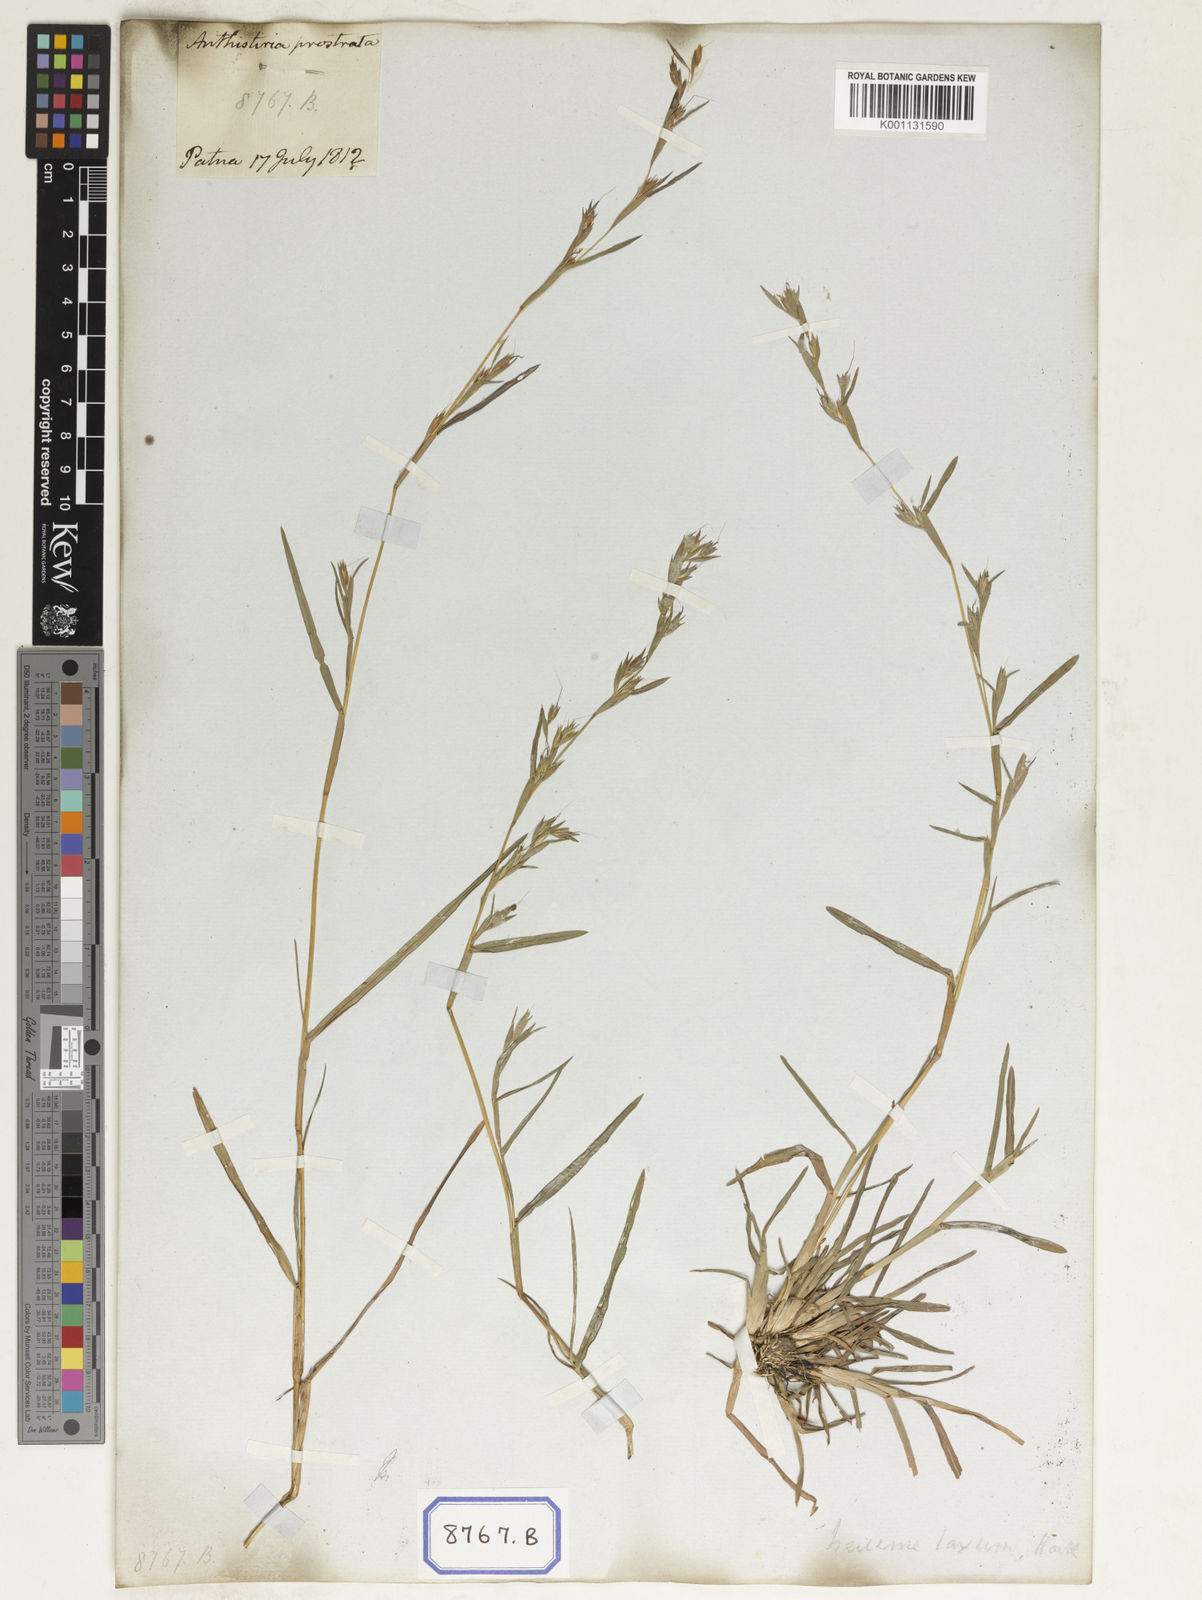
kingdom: Plantae
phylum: Tracheophyta
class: Liliopsida
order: Poales
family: Poaceae
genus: Themeda
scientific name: Themeda
